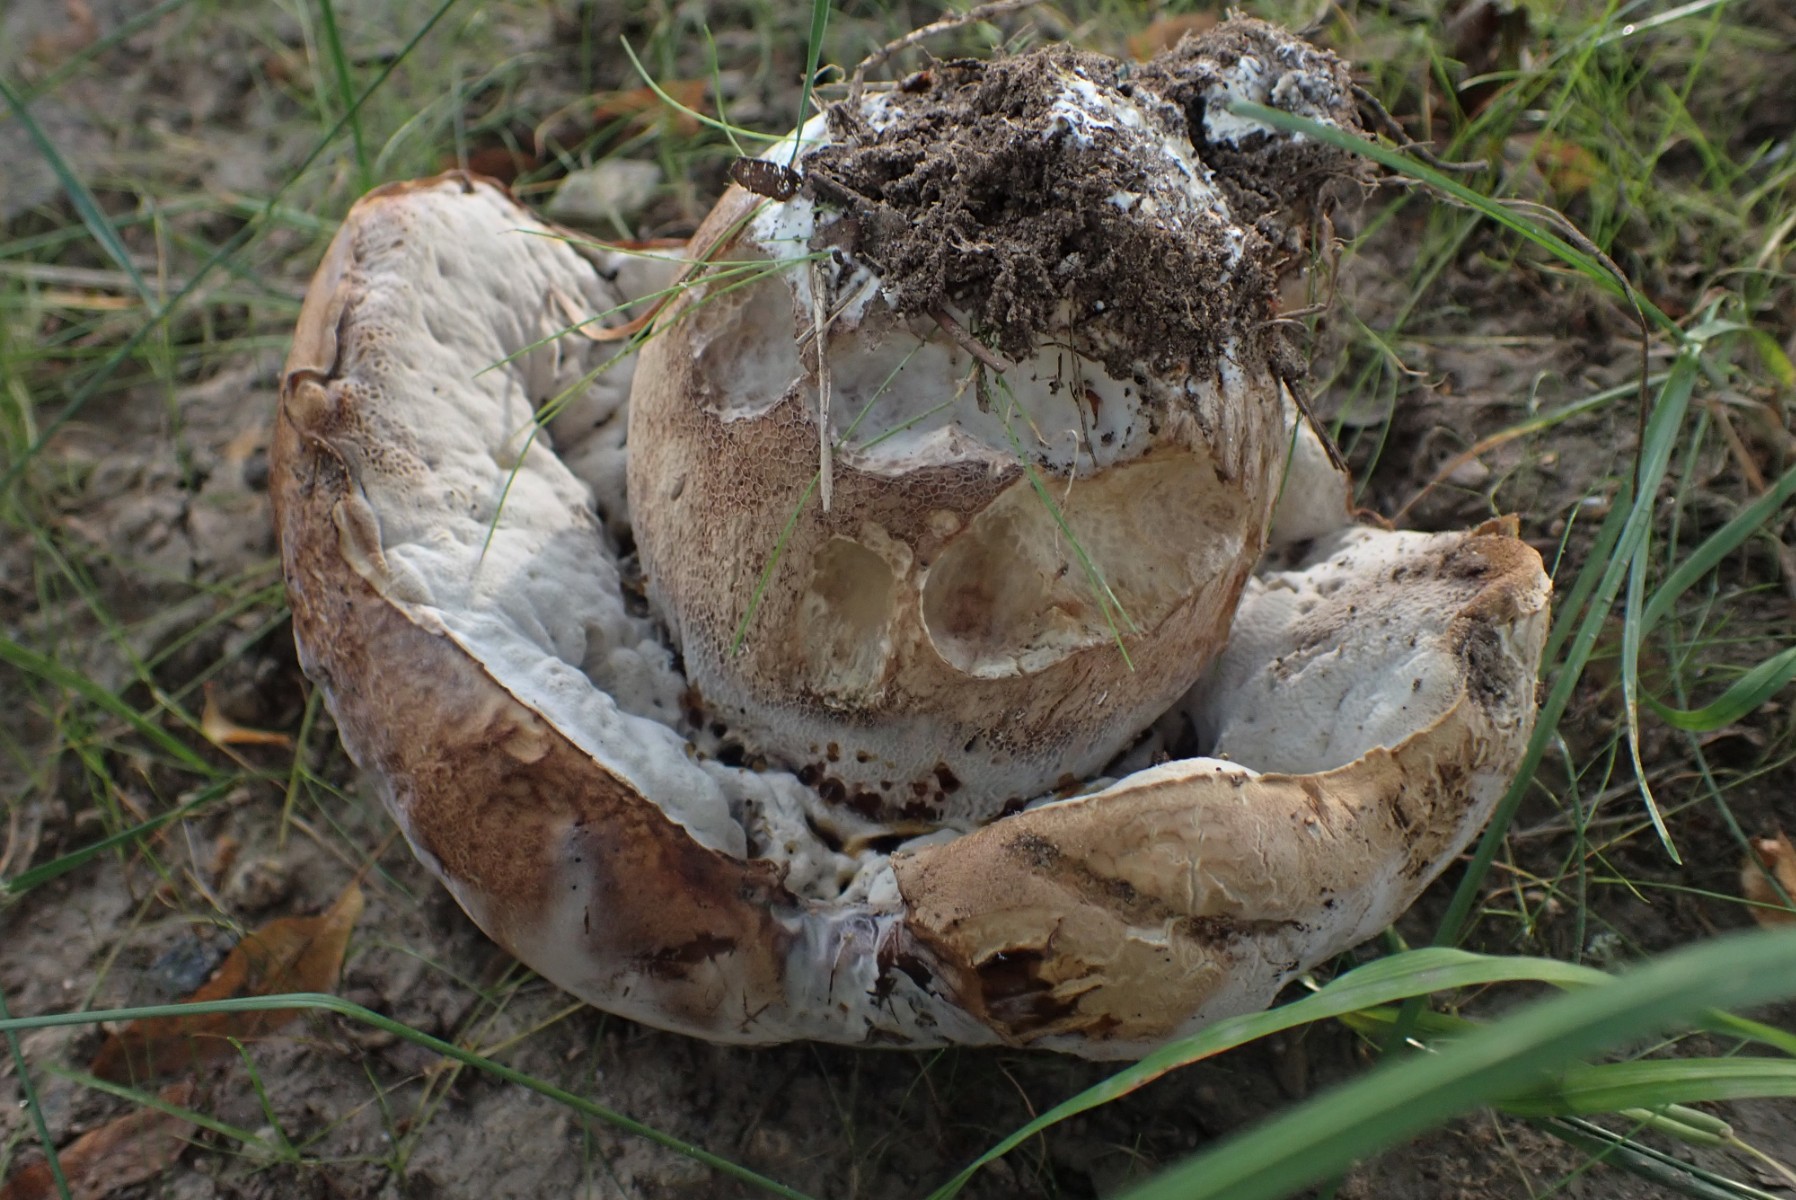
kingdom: Fungi
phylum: Basidiomycota
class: Agaricomycetes
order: Boletales
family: Boletaceae
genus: Boletus
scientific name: Boletus reticulatus
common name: sommer-rørhat
